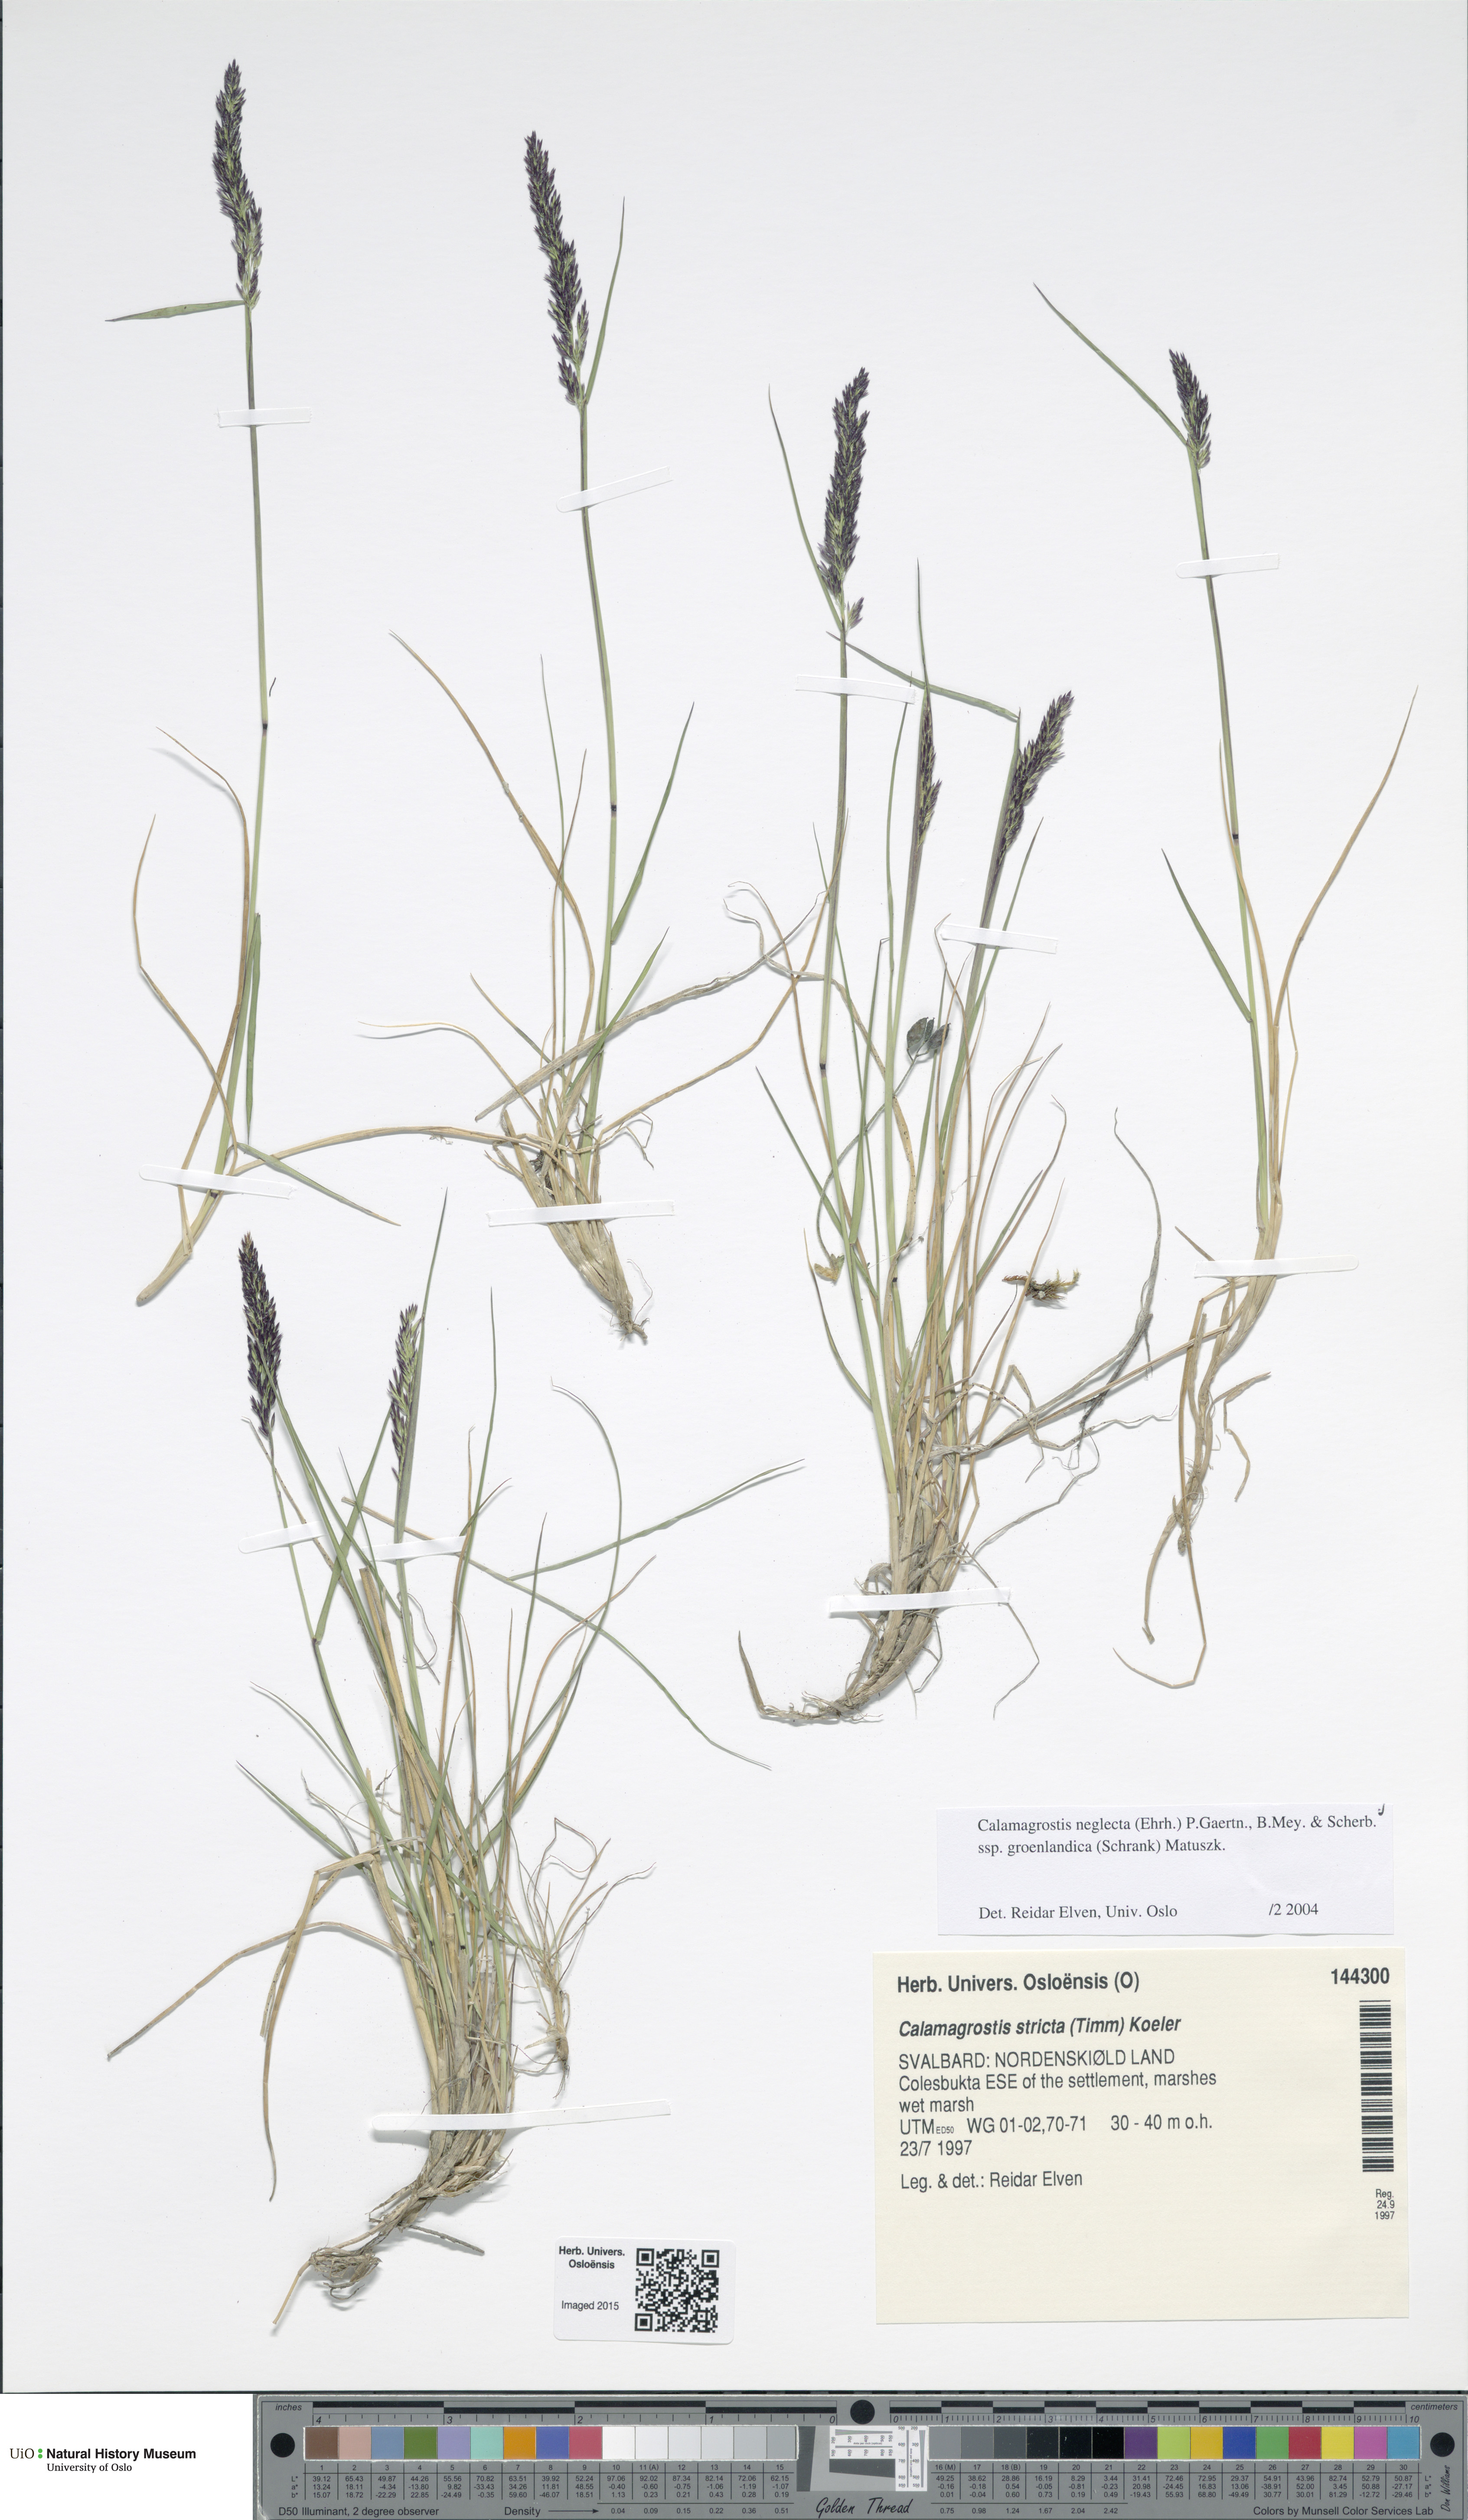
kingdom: Plantae
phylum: Tracheophyta
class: Liliopsida
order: Poales
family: Poaceae
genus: Calamagrostis
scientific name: Calamagrostis stricta
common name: Narrow small-reed
